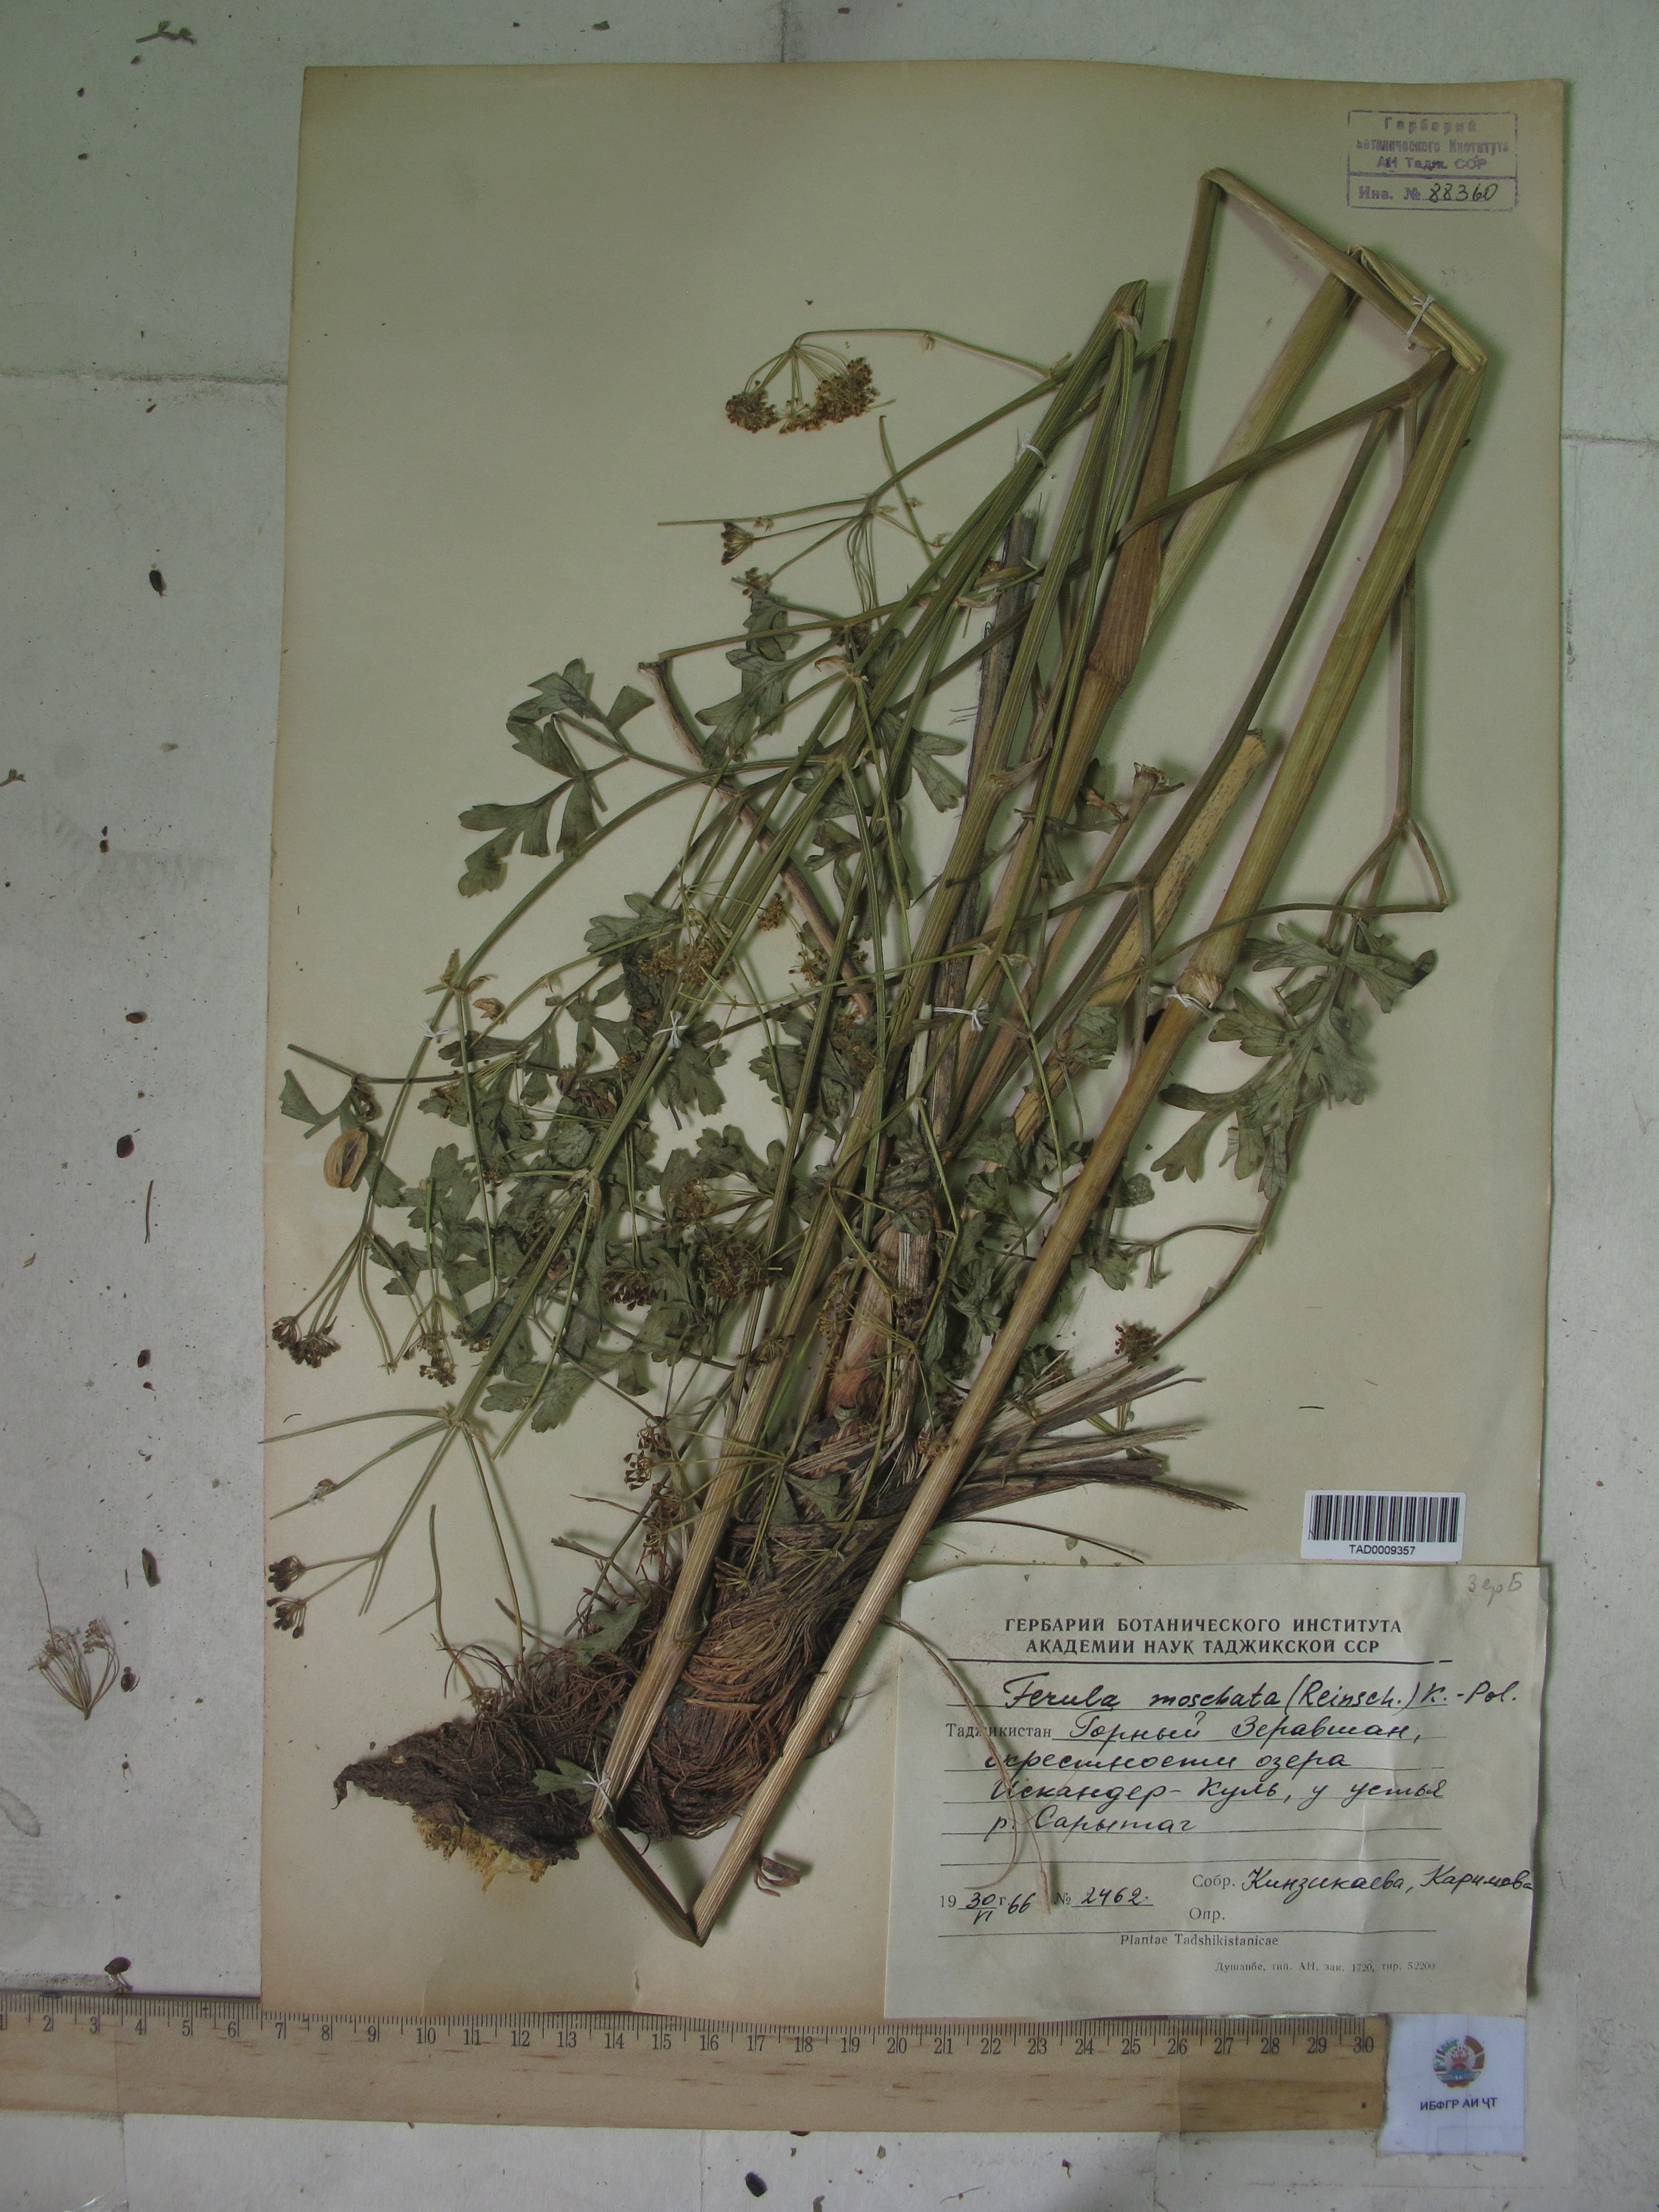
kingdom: Plantae
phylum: Tracheophyta
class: Magnoliopsida
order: Apiales
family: Apiaceae
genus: Ferula
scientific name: Ferula moschata
